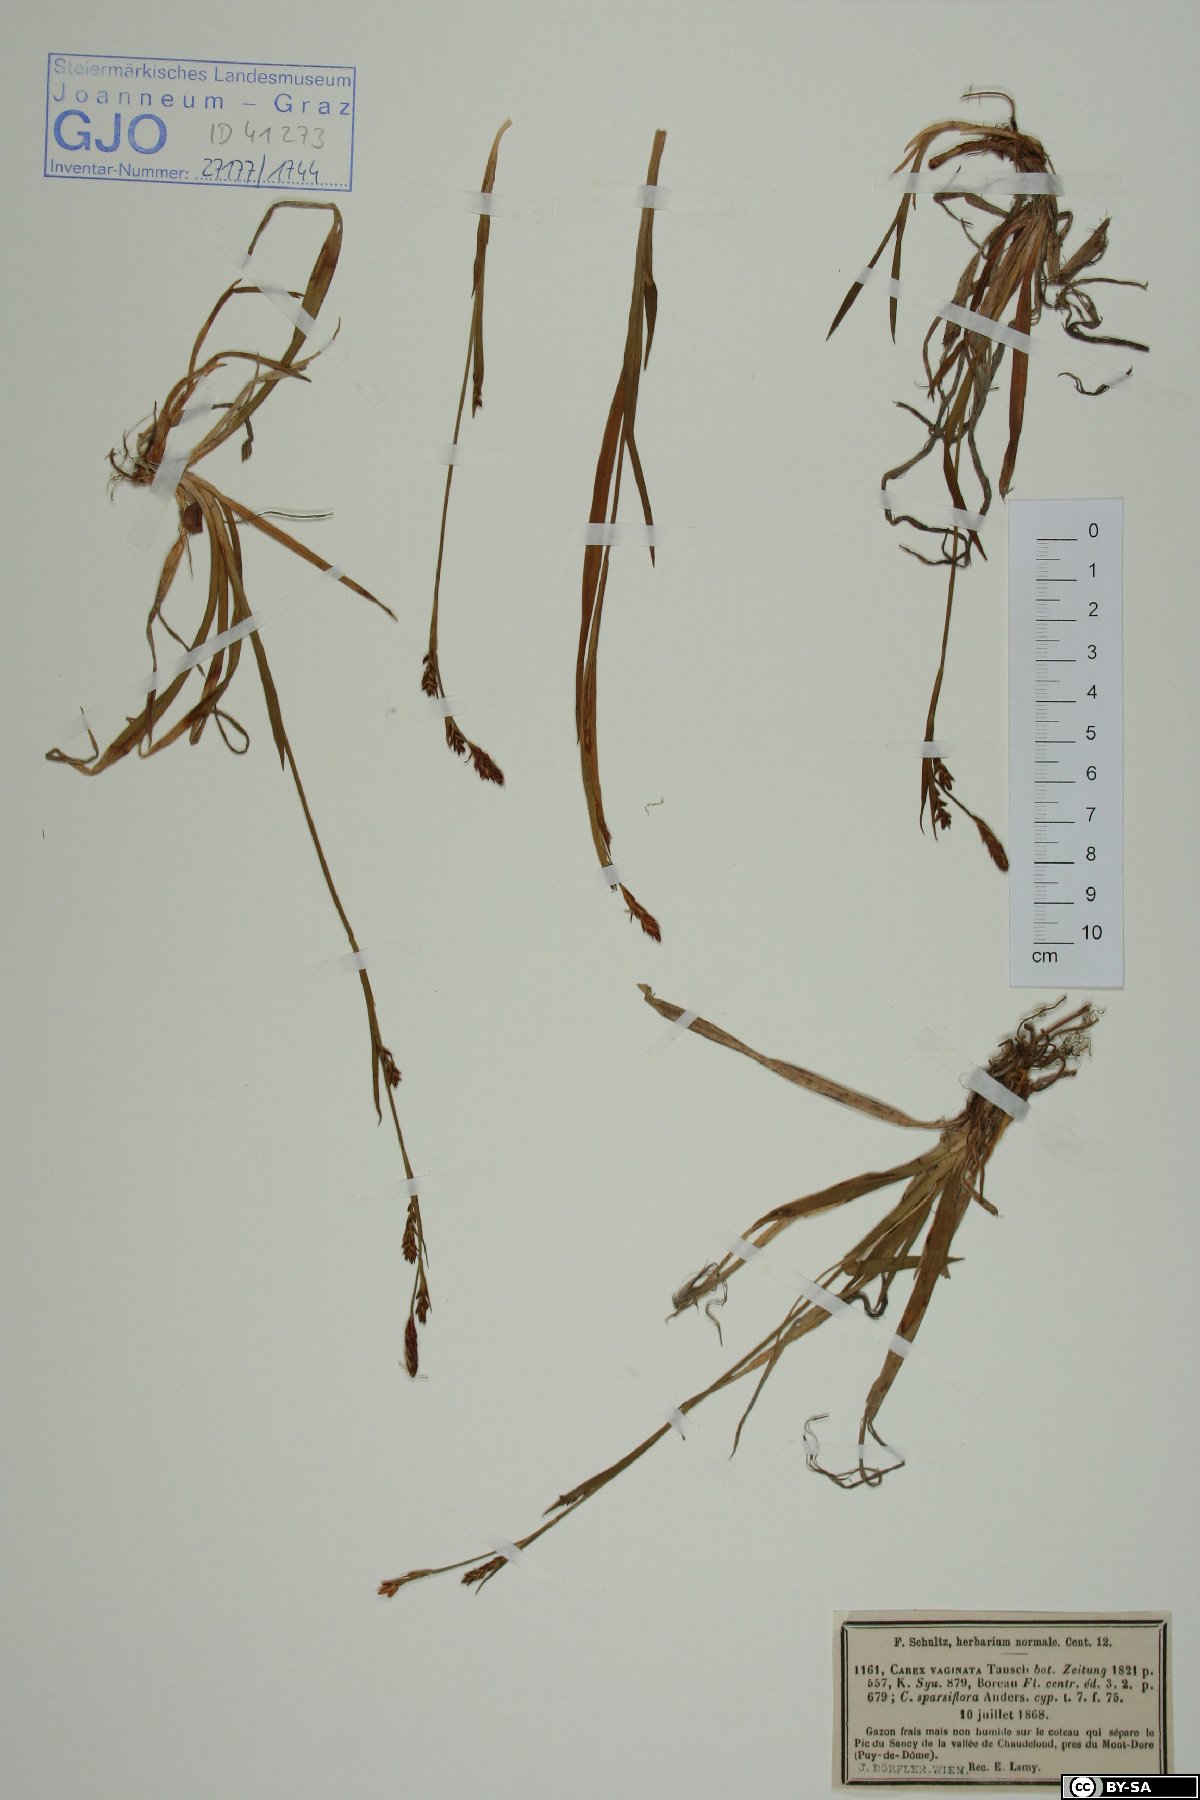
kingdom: Plantae
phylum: Tracheophyta
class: Liliopsida
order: Poales
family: Cyperaceae
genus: Carex
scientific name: Carex vaginata
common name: Sheathed sedge
